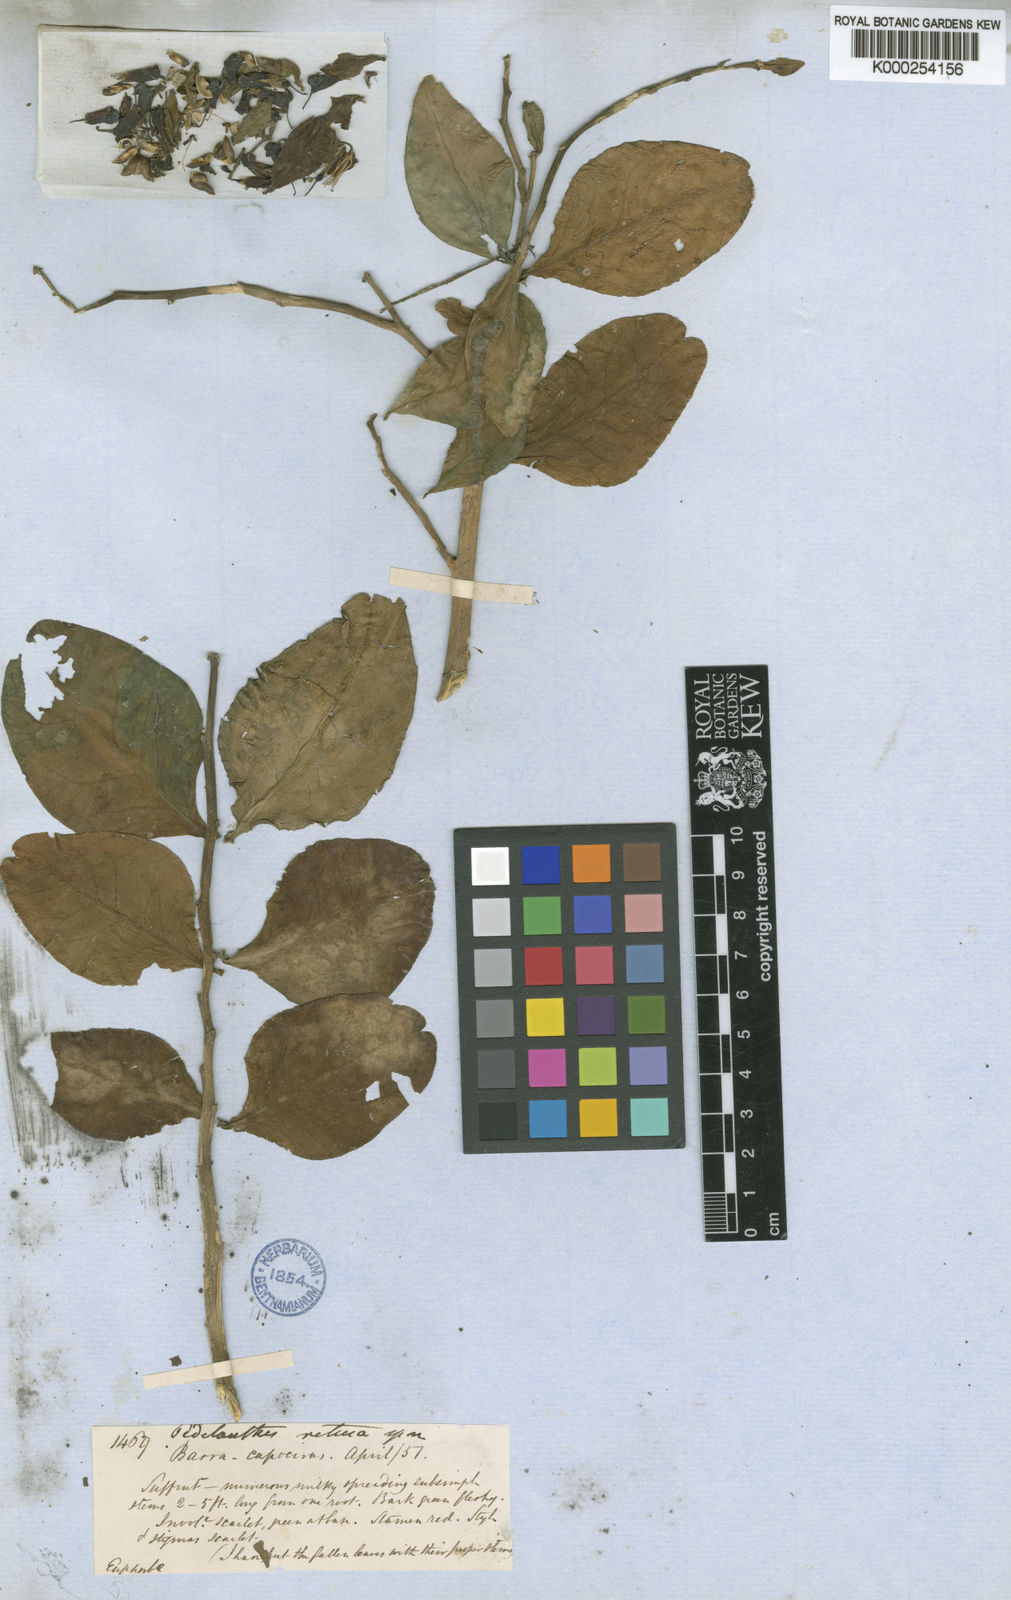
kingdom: Plantae
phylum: Tracheophyta
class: Magnoliopsida
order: Malpighiales
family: Euphorbiaceae
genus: Euphorbia
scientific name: Euphorbia tithymaloides
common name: Slipperplant
